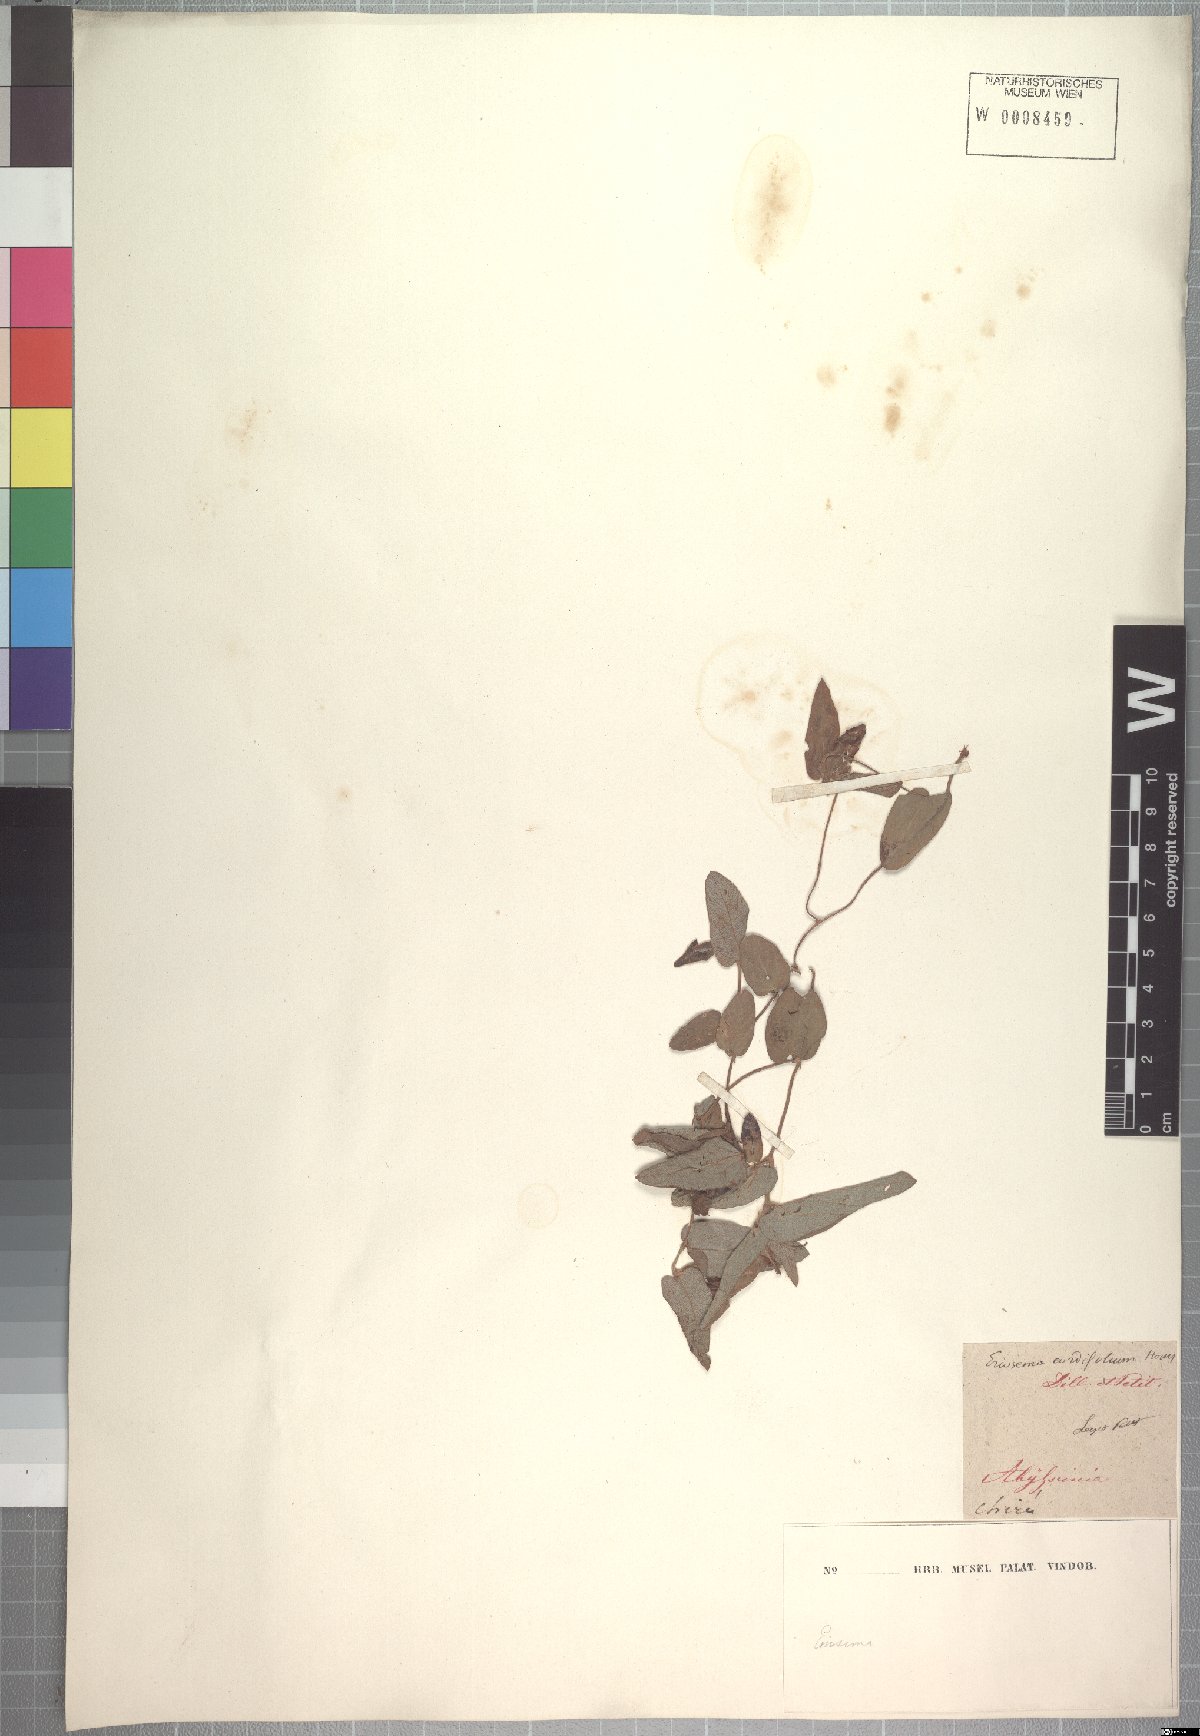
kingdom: Plantae
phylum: Tracheophyta
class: Magnoliopsida
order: Fabales
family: Fabaceae
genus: Eriosema
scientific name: Eriosema cordifolium
